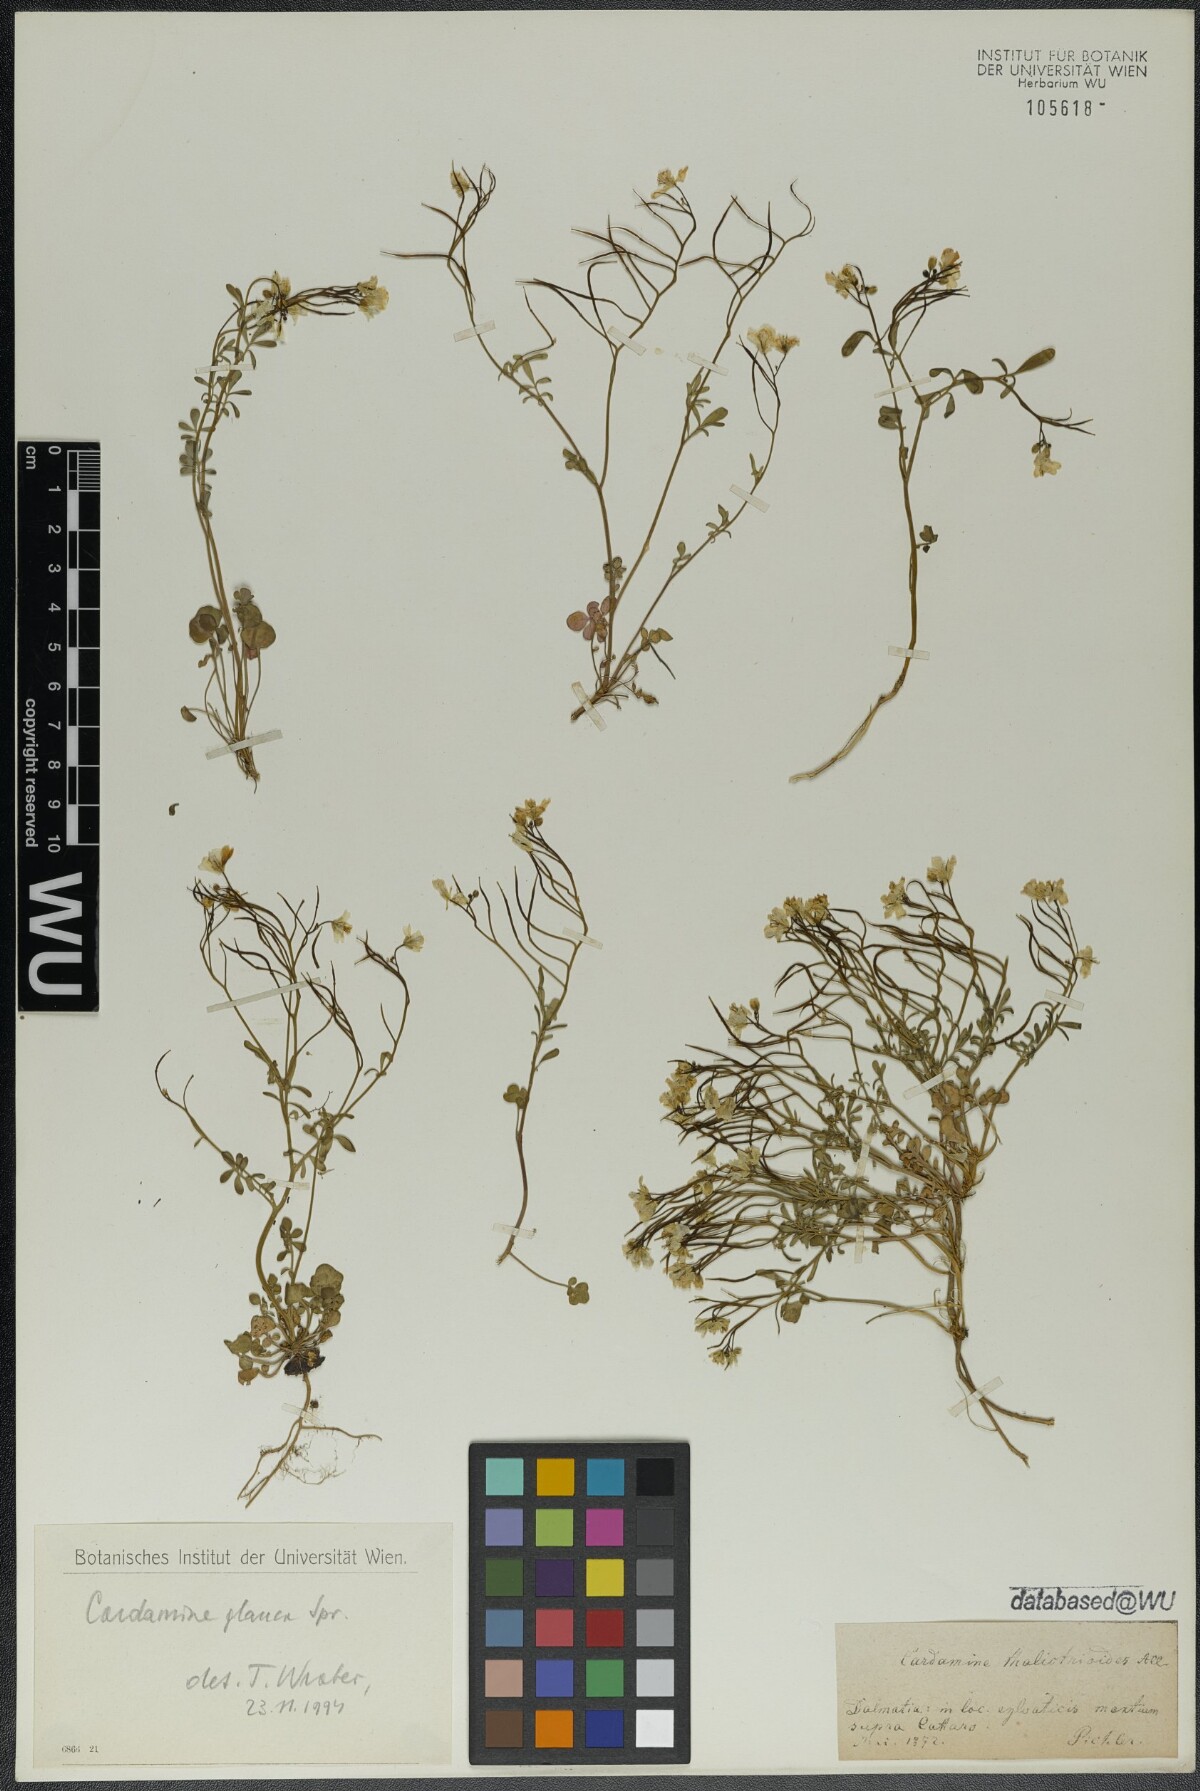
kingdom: Plantae
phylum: Tracheophyta
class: Magnoliopsida
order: Brassicales
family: Brassicaceae
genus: Cardamine
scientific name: Cardamine glauca
